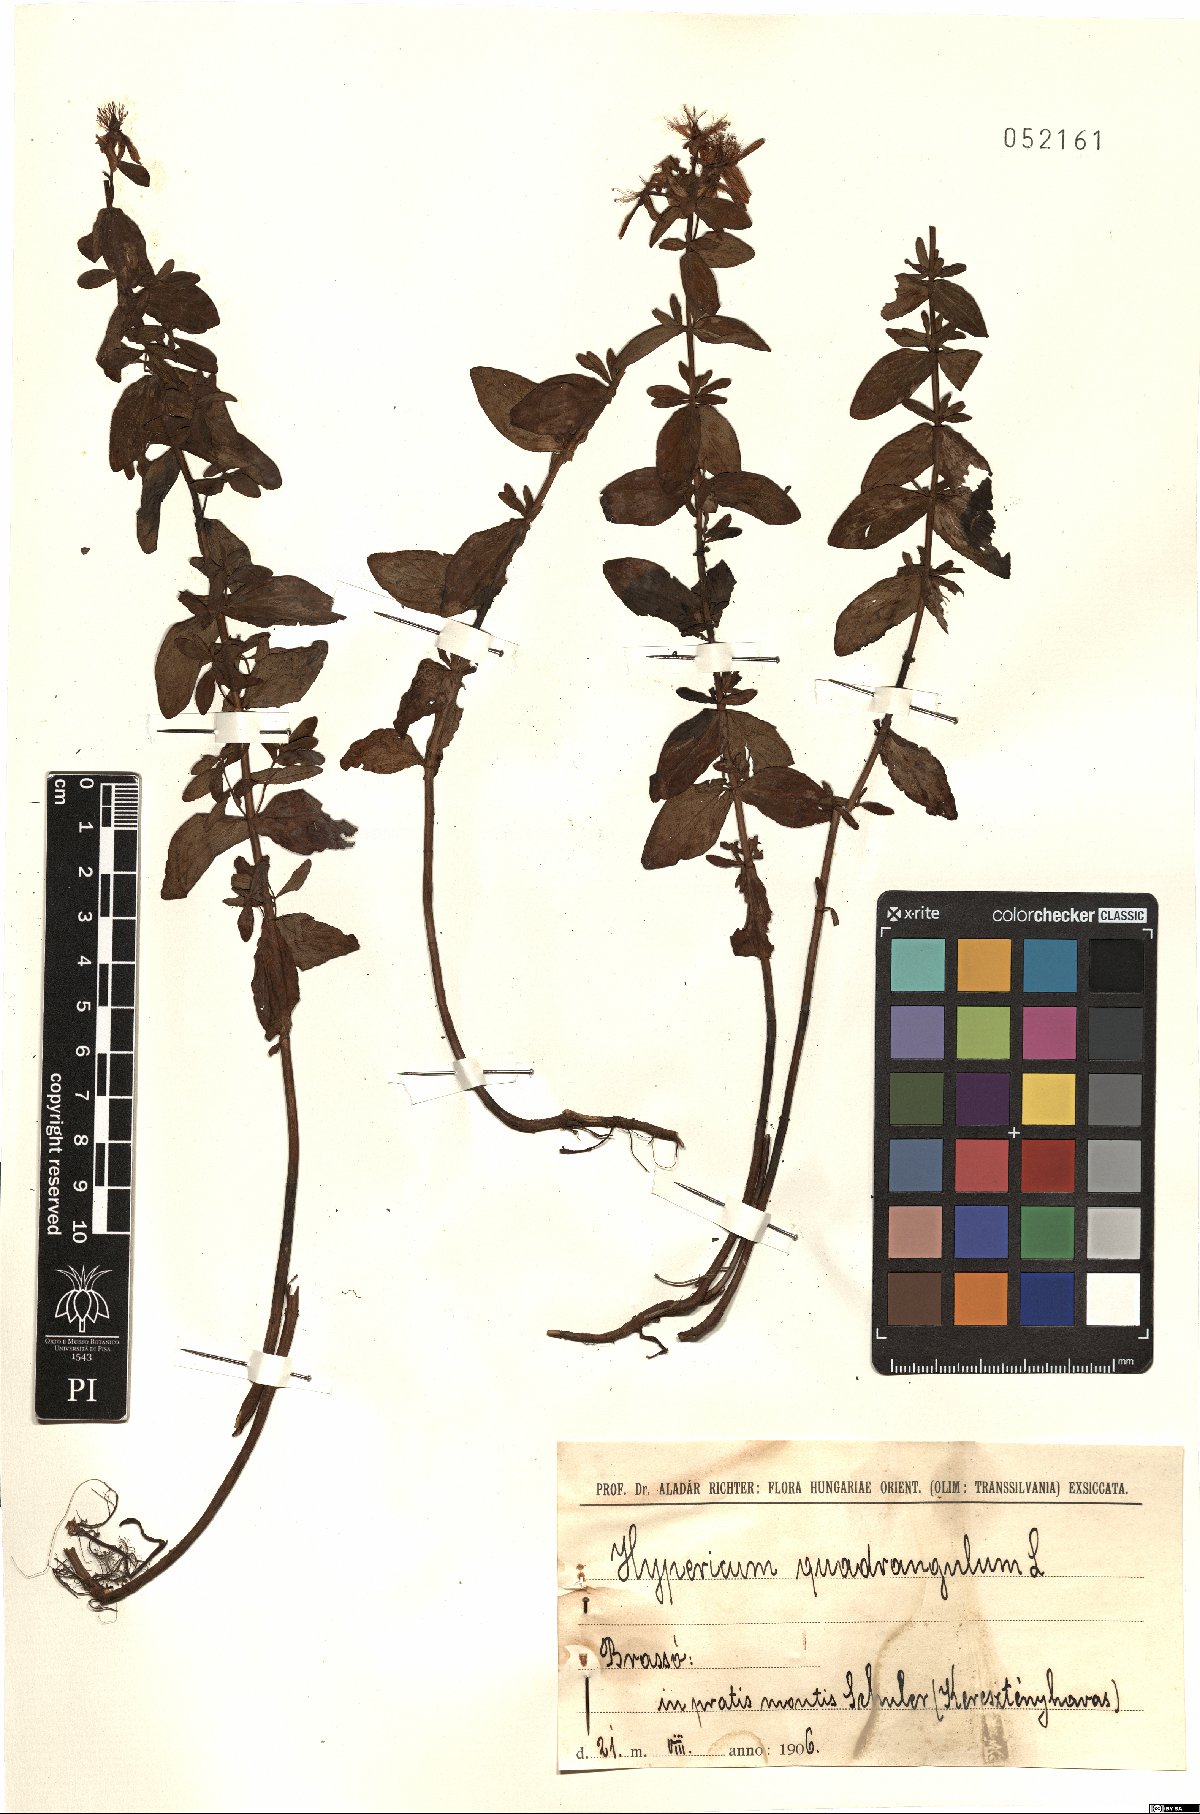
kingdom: Plantae
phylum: Tracheophyta
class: Magnoliopsida
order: Malpighiales
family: Hypericaceae
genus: Hypericum
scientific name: Hypericum tetrapterum
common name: Square-stalked st. john's-wort
